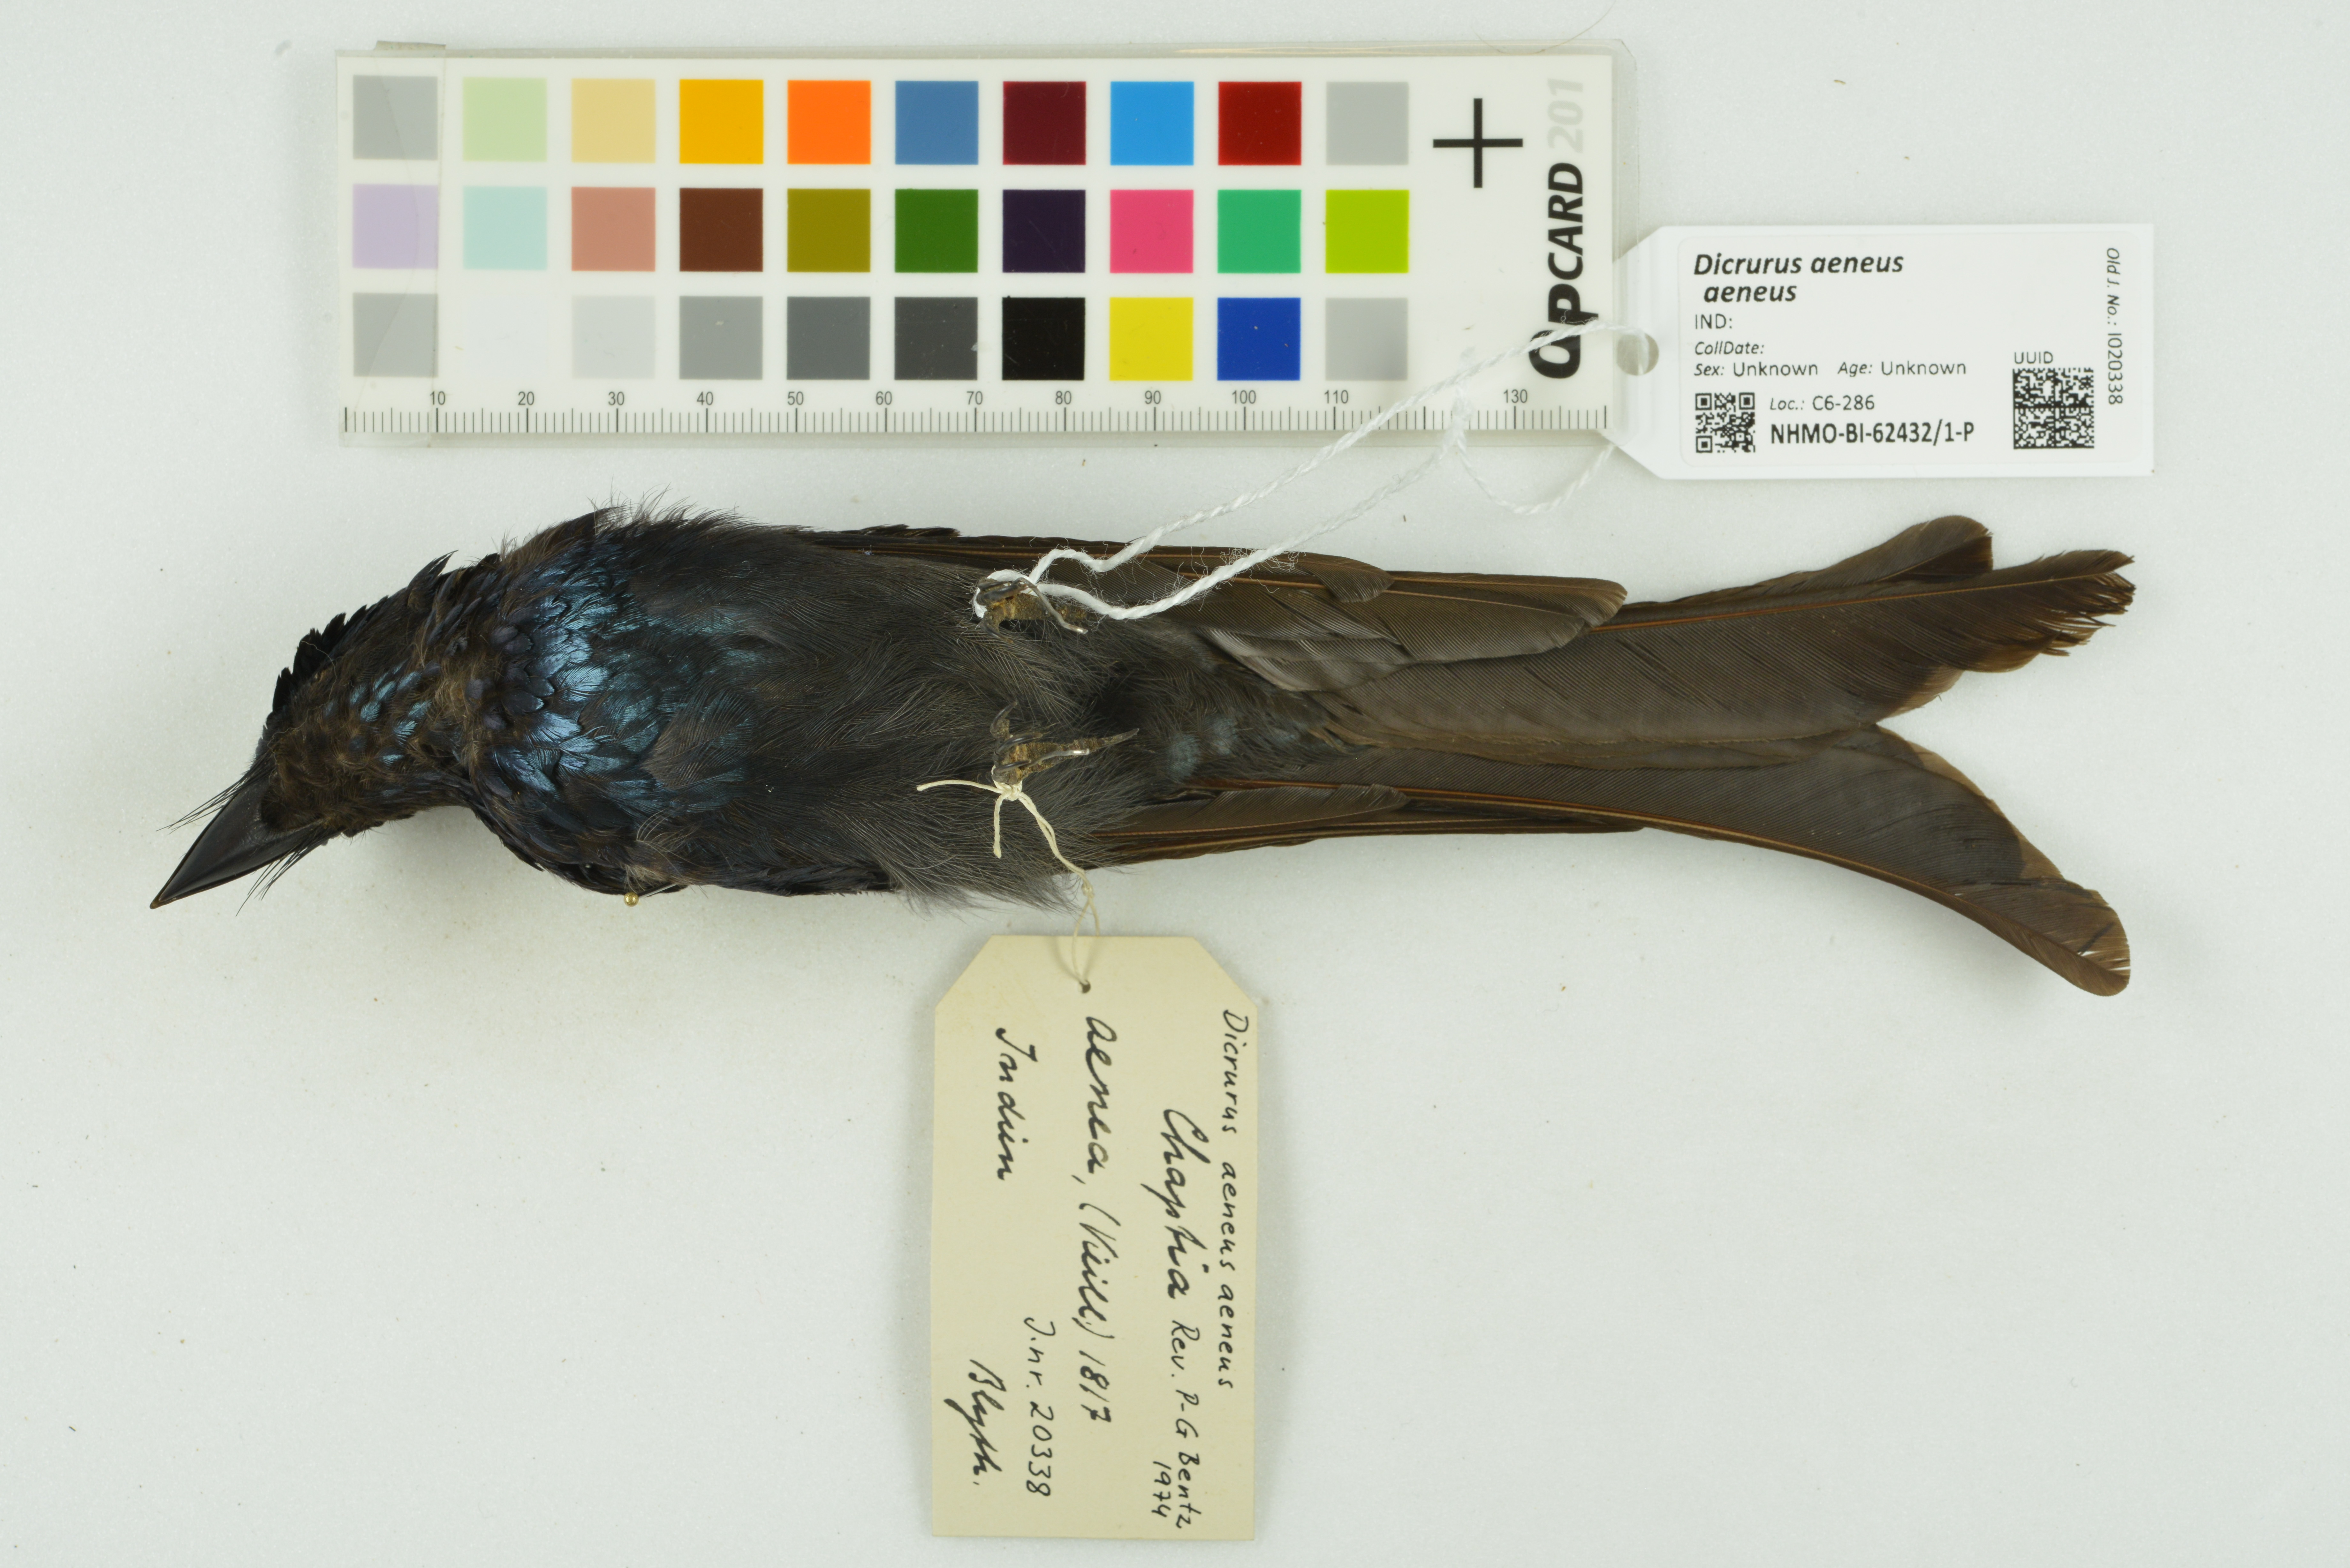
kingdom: Animalia
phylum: Chordata
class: Aves
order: Passeriformes
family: Dicruridae
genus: Dicrurus
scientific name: Dicrurus aeneus
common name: Bronzed drongo
